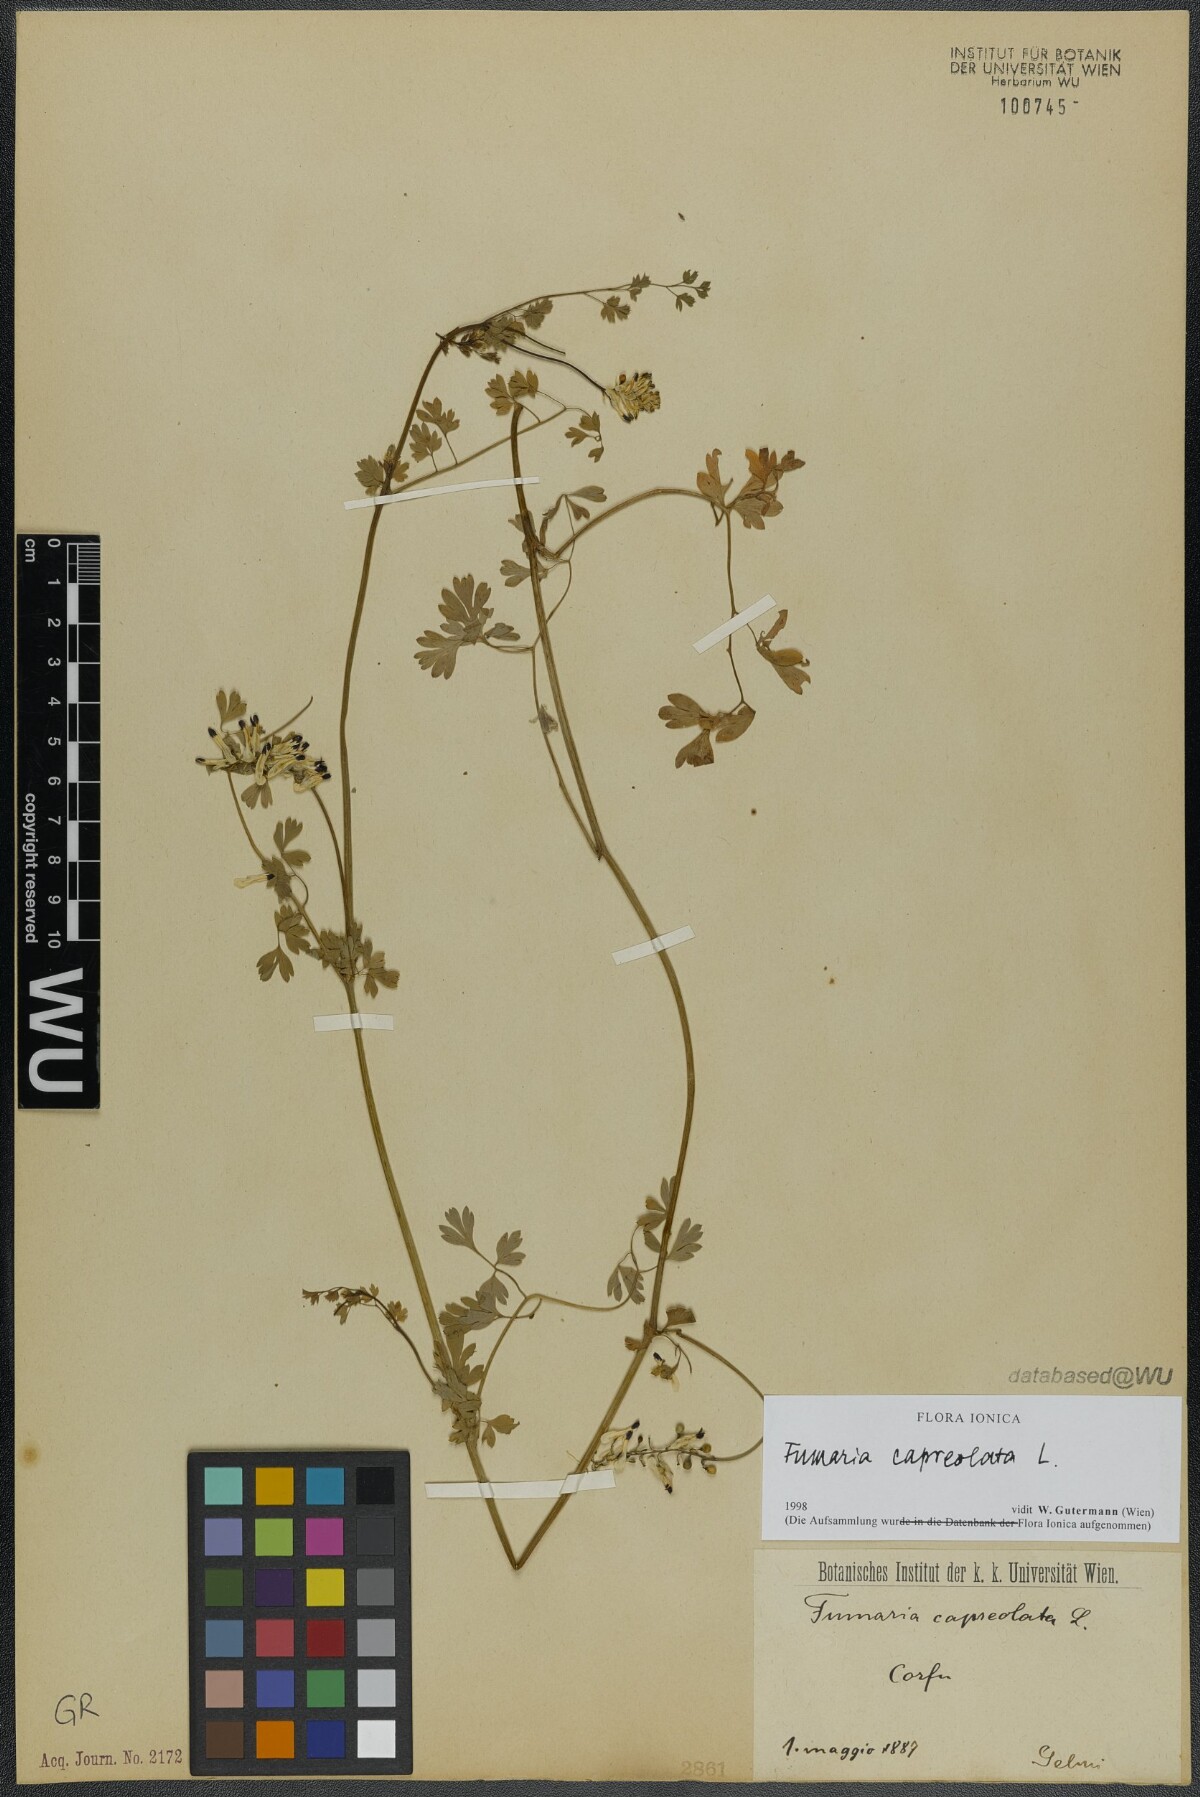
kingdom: Plantae
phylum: Tracheophyta
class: Magnoliopsida
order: Ranunculales
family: Papaveraceae
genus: Fumaria
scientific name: Fumaria capreolata
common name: White ramping-fumitory
